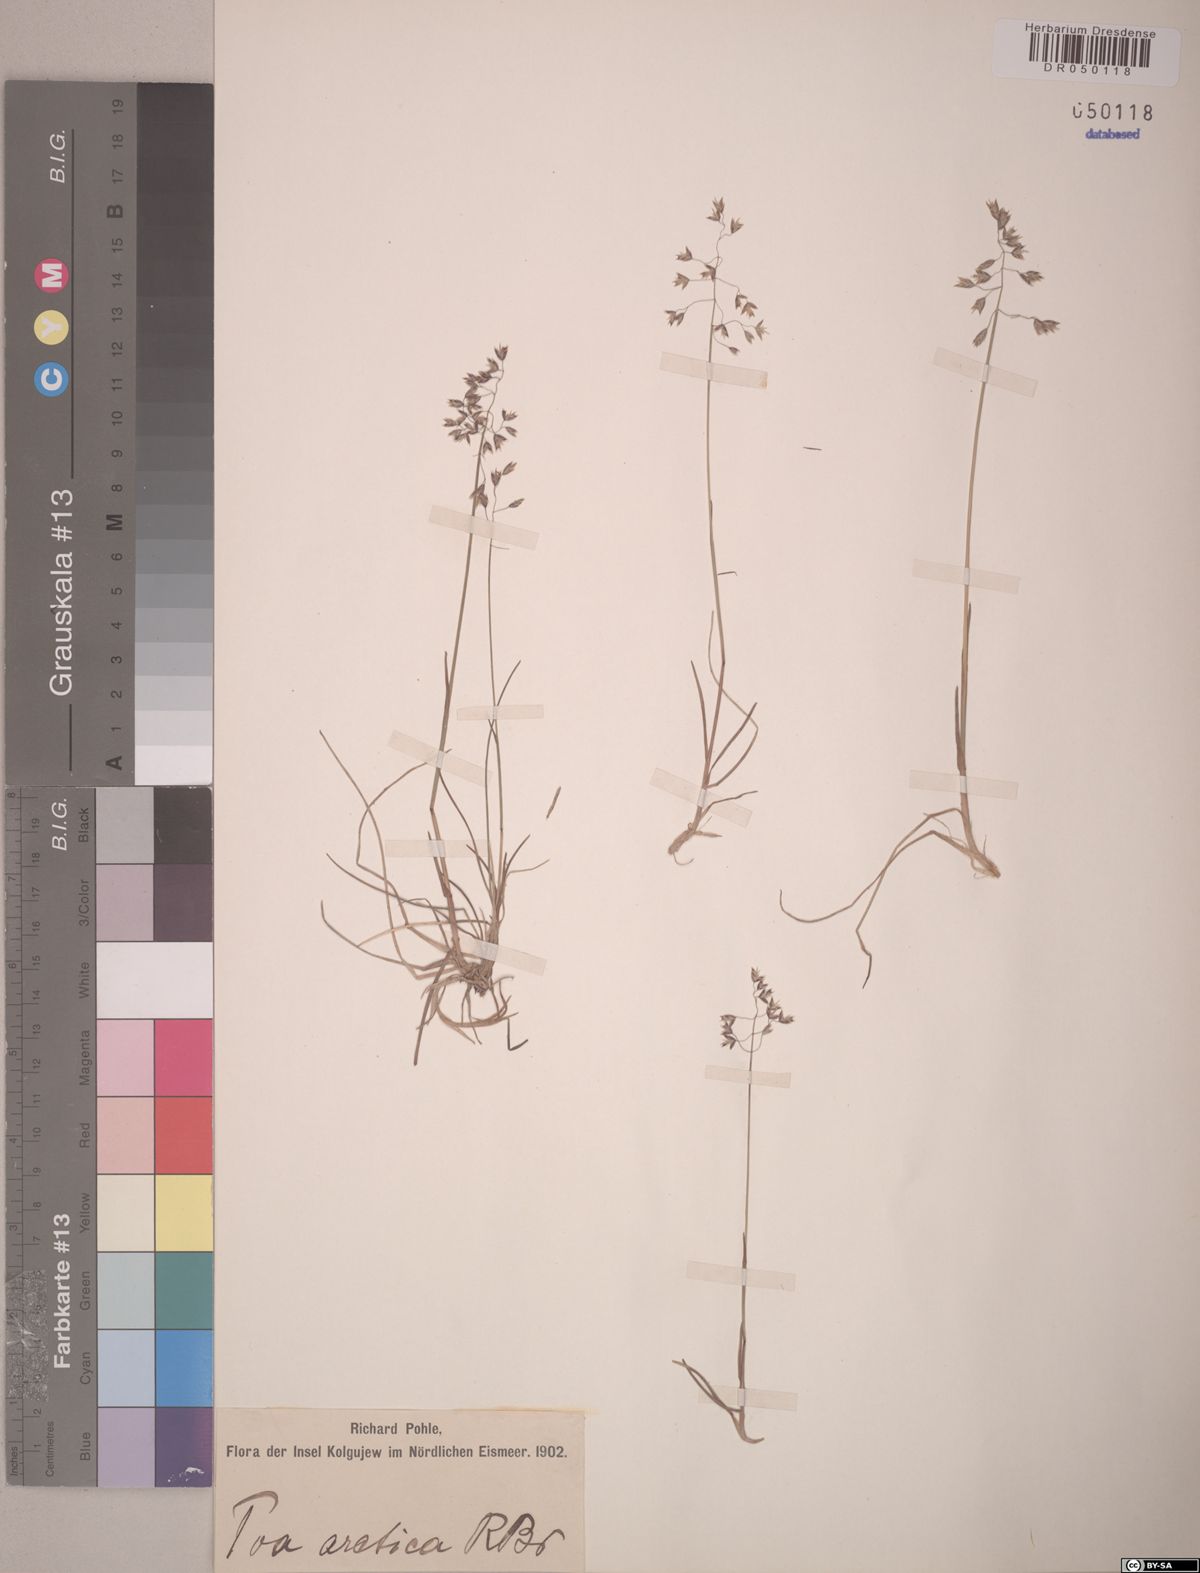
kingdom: Plantae
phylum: Tracheophyta
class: Liliopsida
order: Poales
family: Poaceae
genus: Poa
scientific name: Poa arctica
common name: Arctic bluegrass
